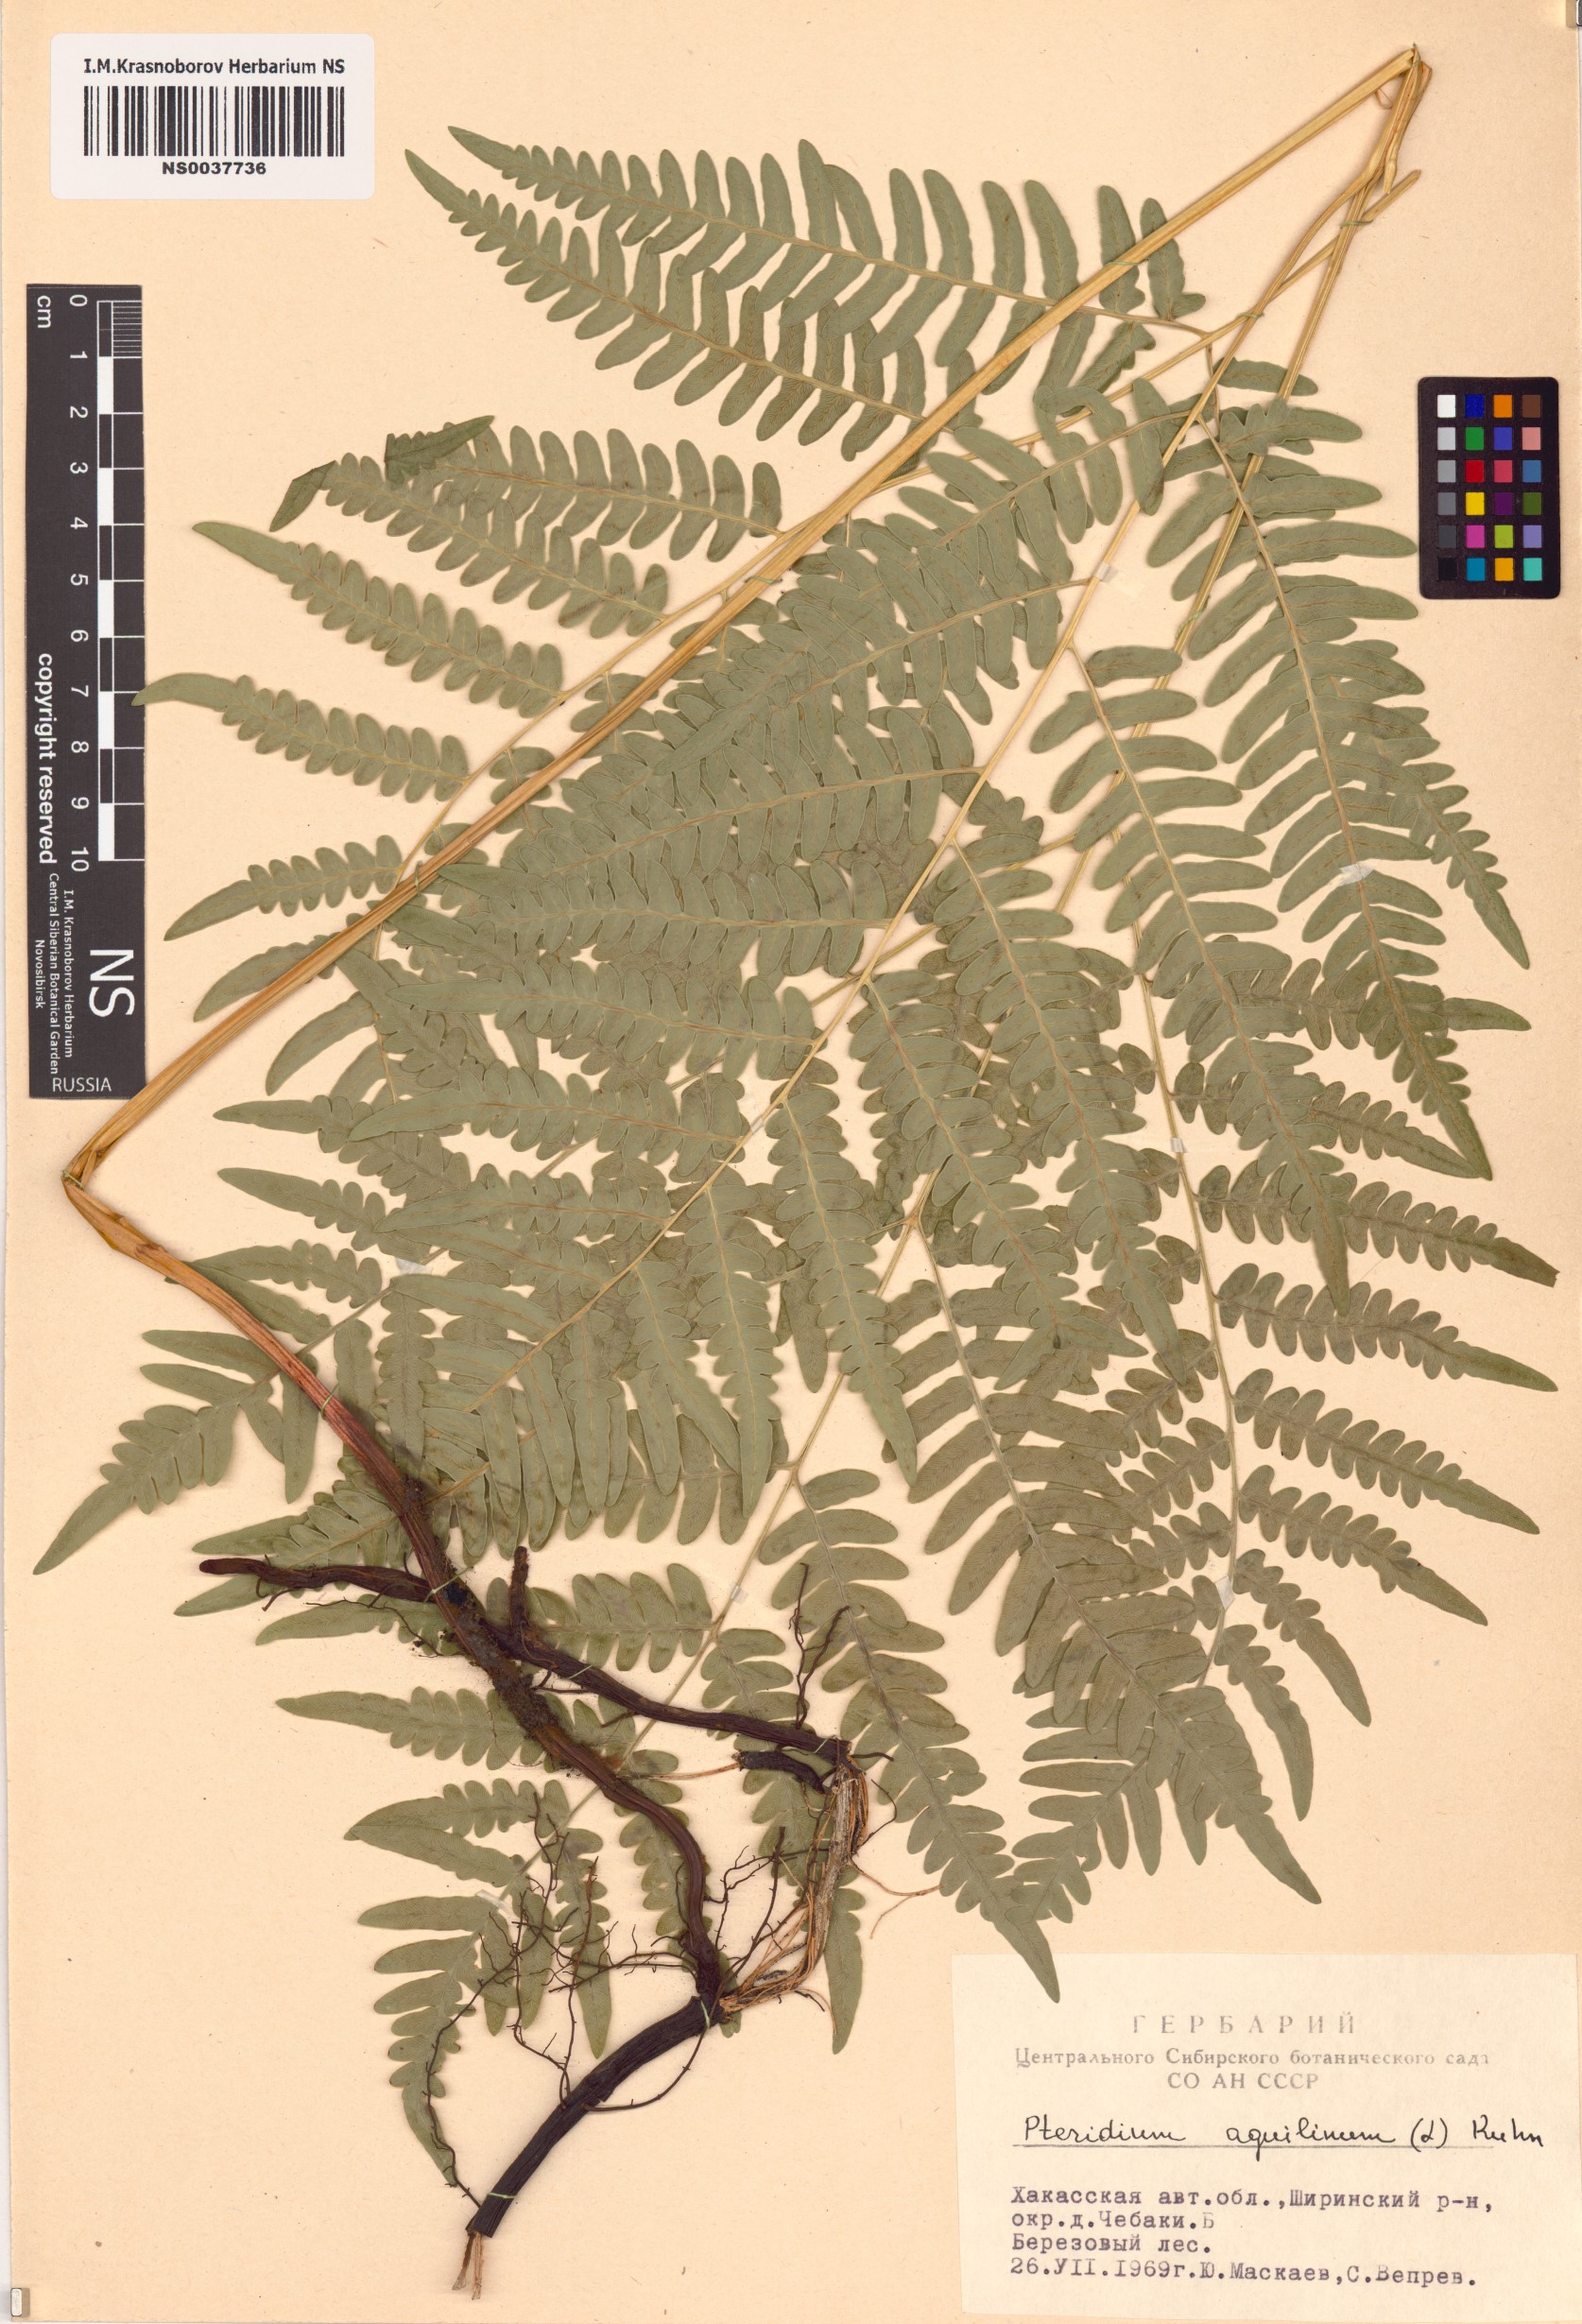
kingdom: Plantae
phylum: Tracheophyta
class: Polypodiopsida
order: Polypodiales
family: Dennstaedtiaceae
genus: Pteridium
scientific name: Pteridium aquilinum
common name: Bracken
